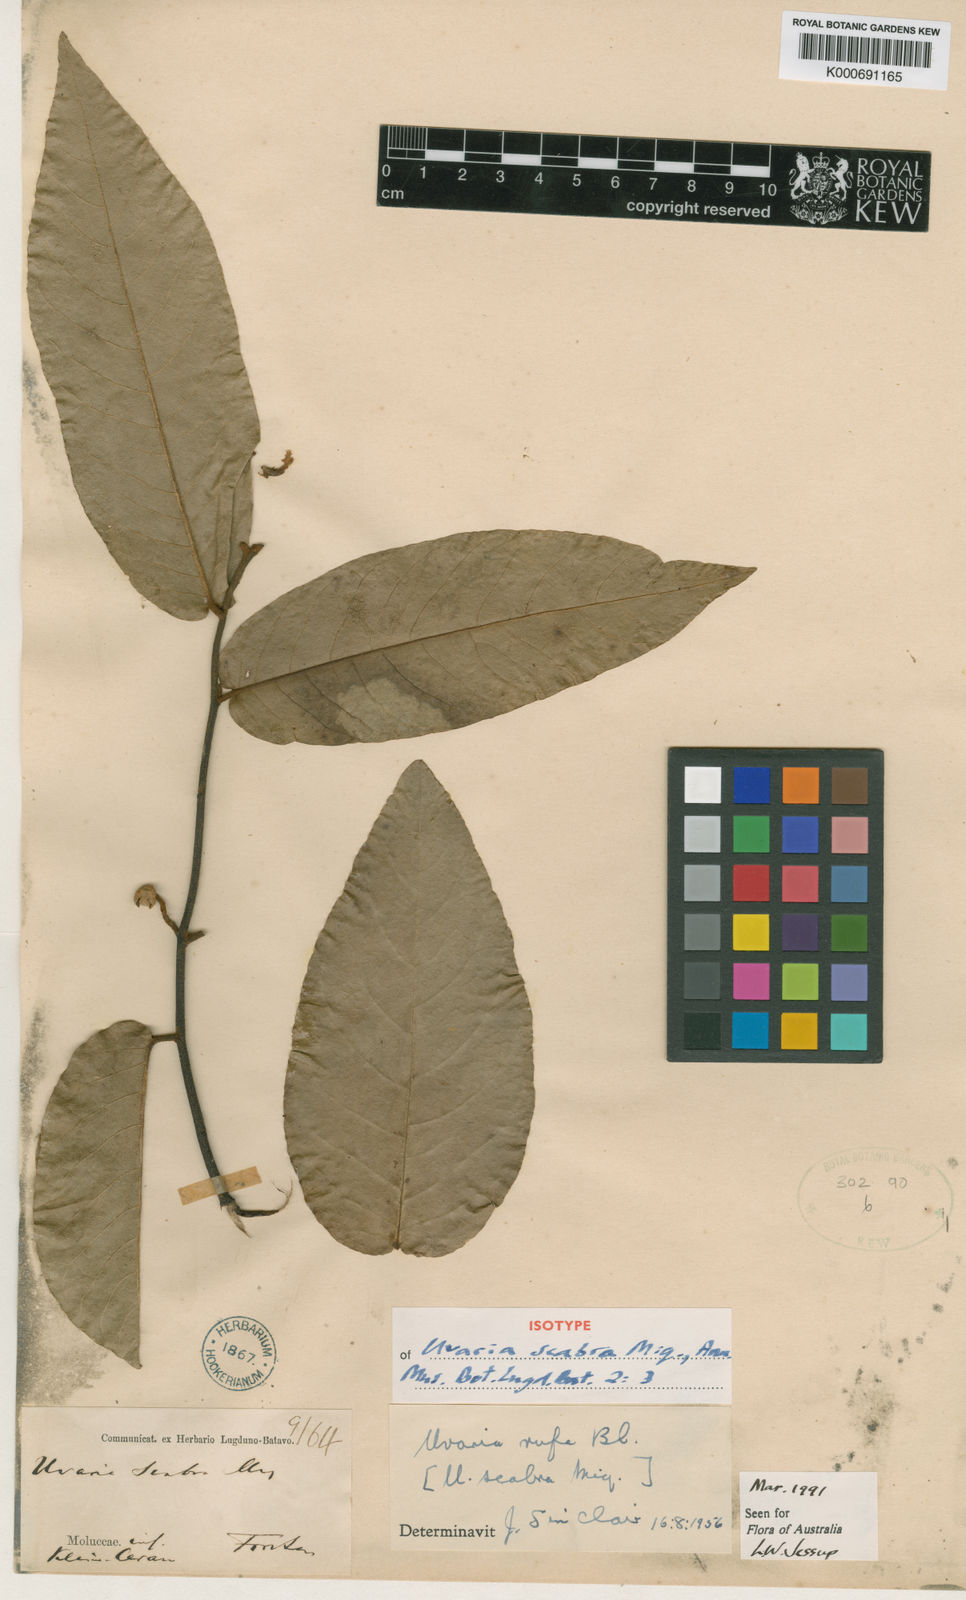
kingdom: Plantae
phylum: Tracheophyta
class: Magnoliopsida
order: Magnoliales
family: Annonaceae
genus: Uvaria
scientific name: Uvaria scabra
